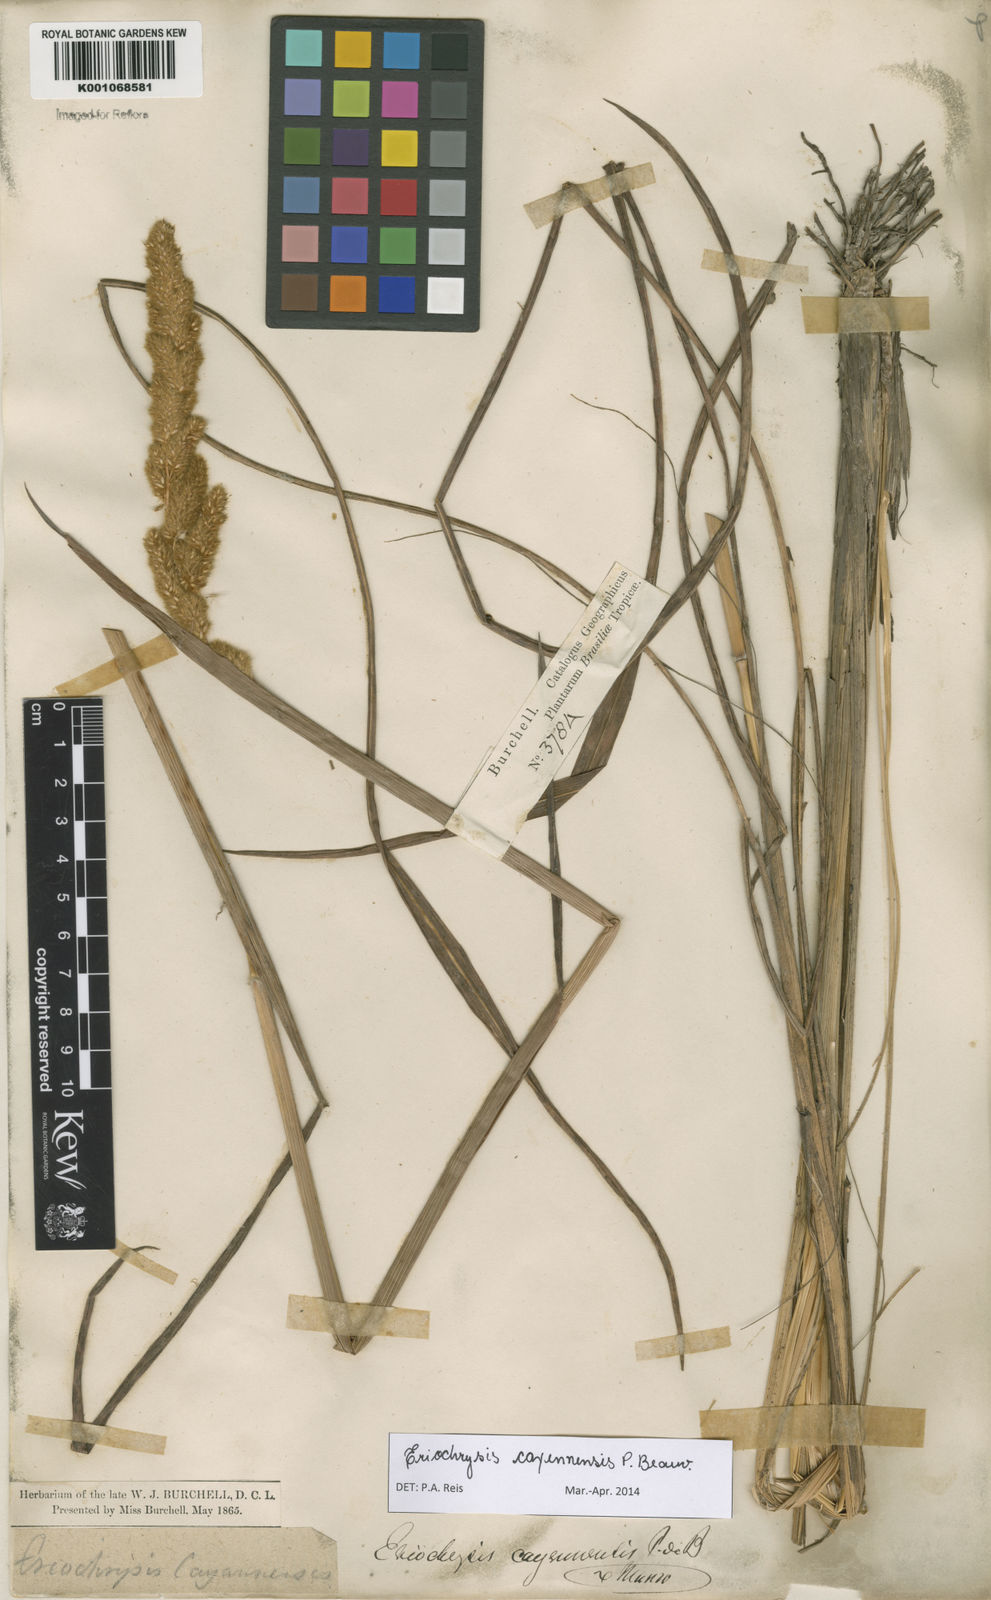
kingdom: Plantae
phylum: Tracheophyta
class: Liliopsida
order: Poales
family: Poaceae
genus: Eriochrysis
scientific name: Eriochrysis cayennensis
